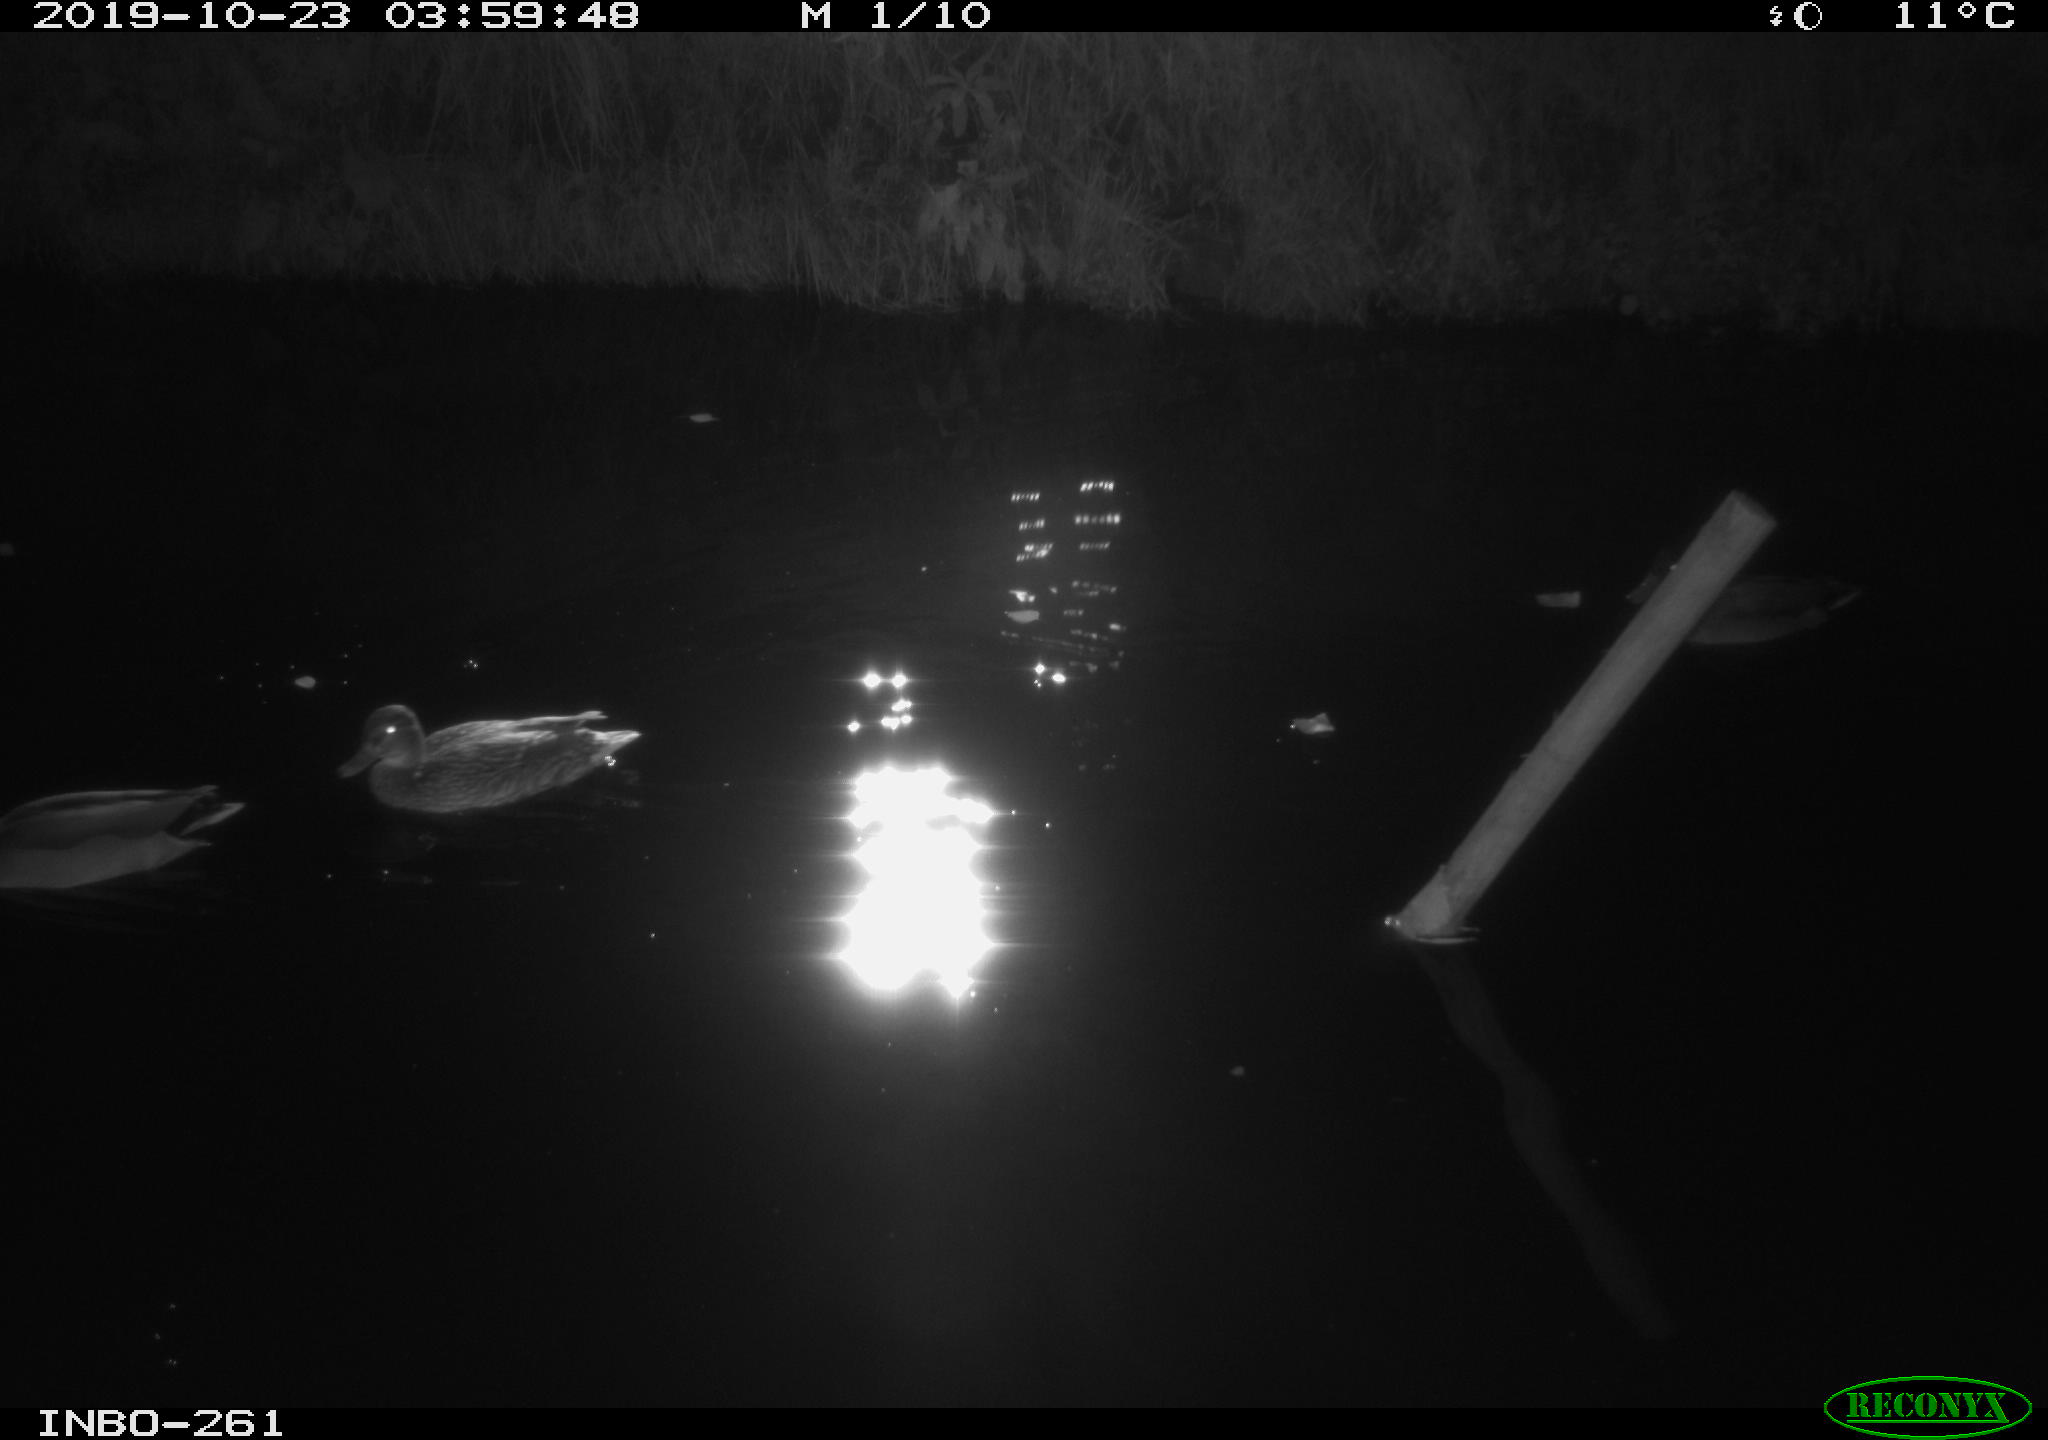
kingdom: Animalia
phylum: Chordata
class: Aves
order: Anseriformes
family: Anatidae
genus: Anas
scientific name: Anas platyrhynchos
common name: Mallard
